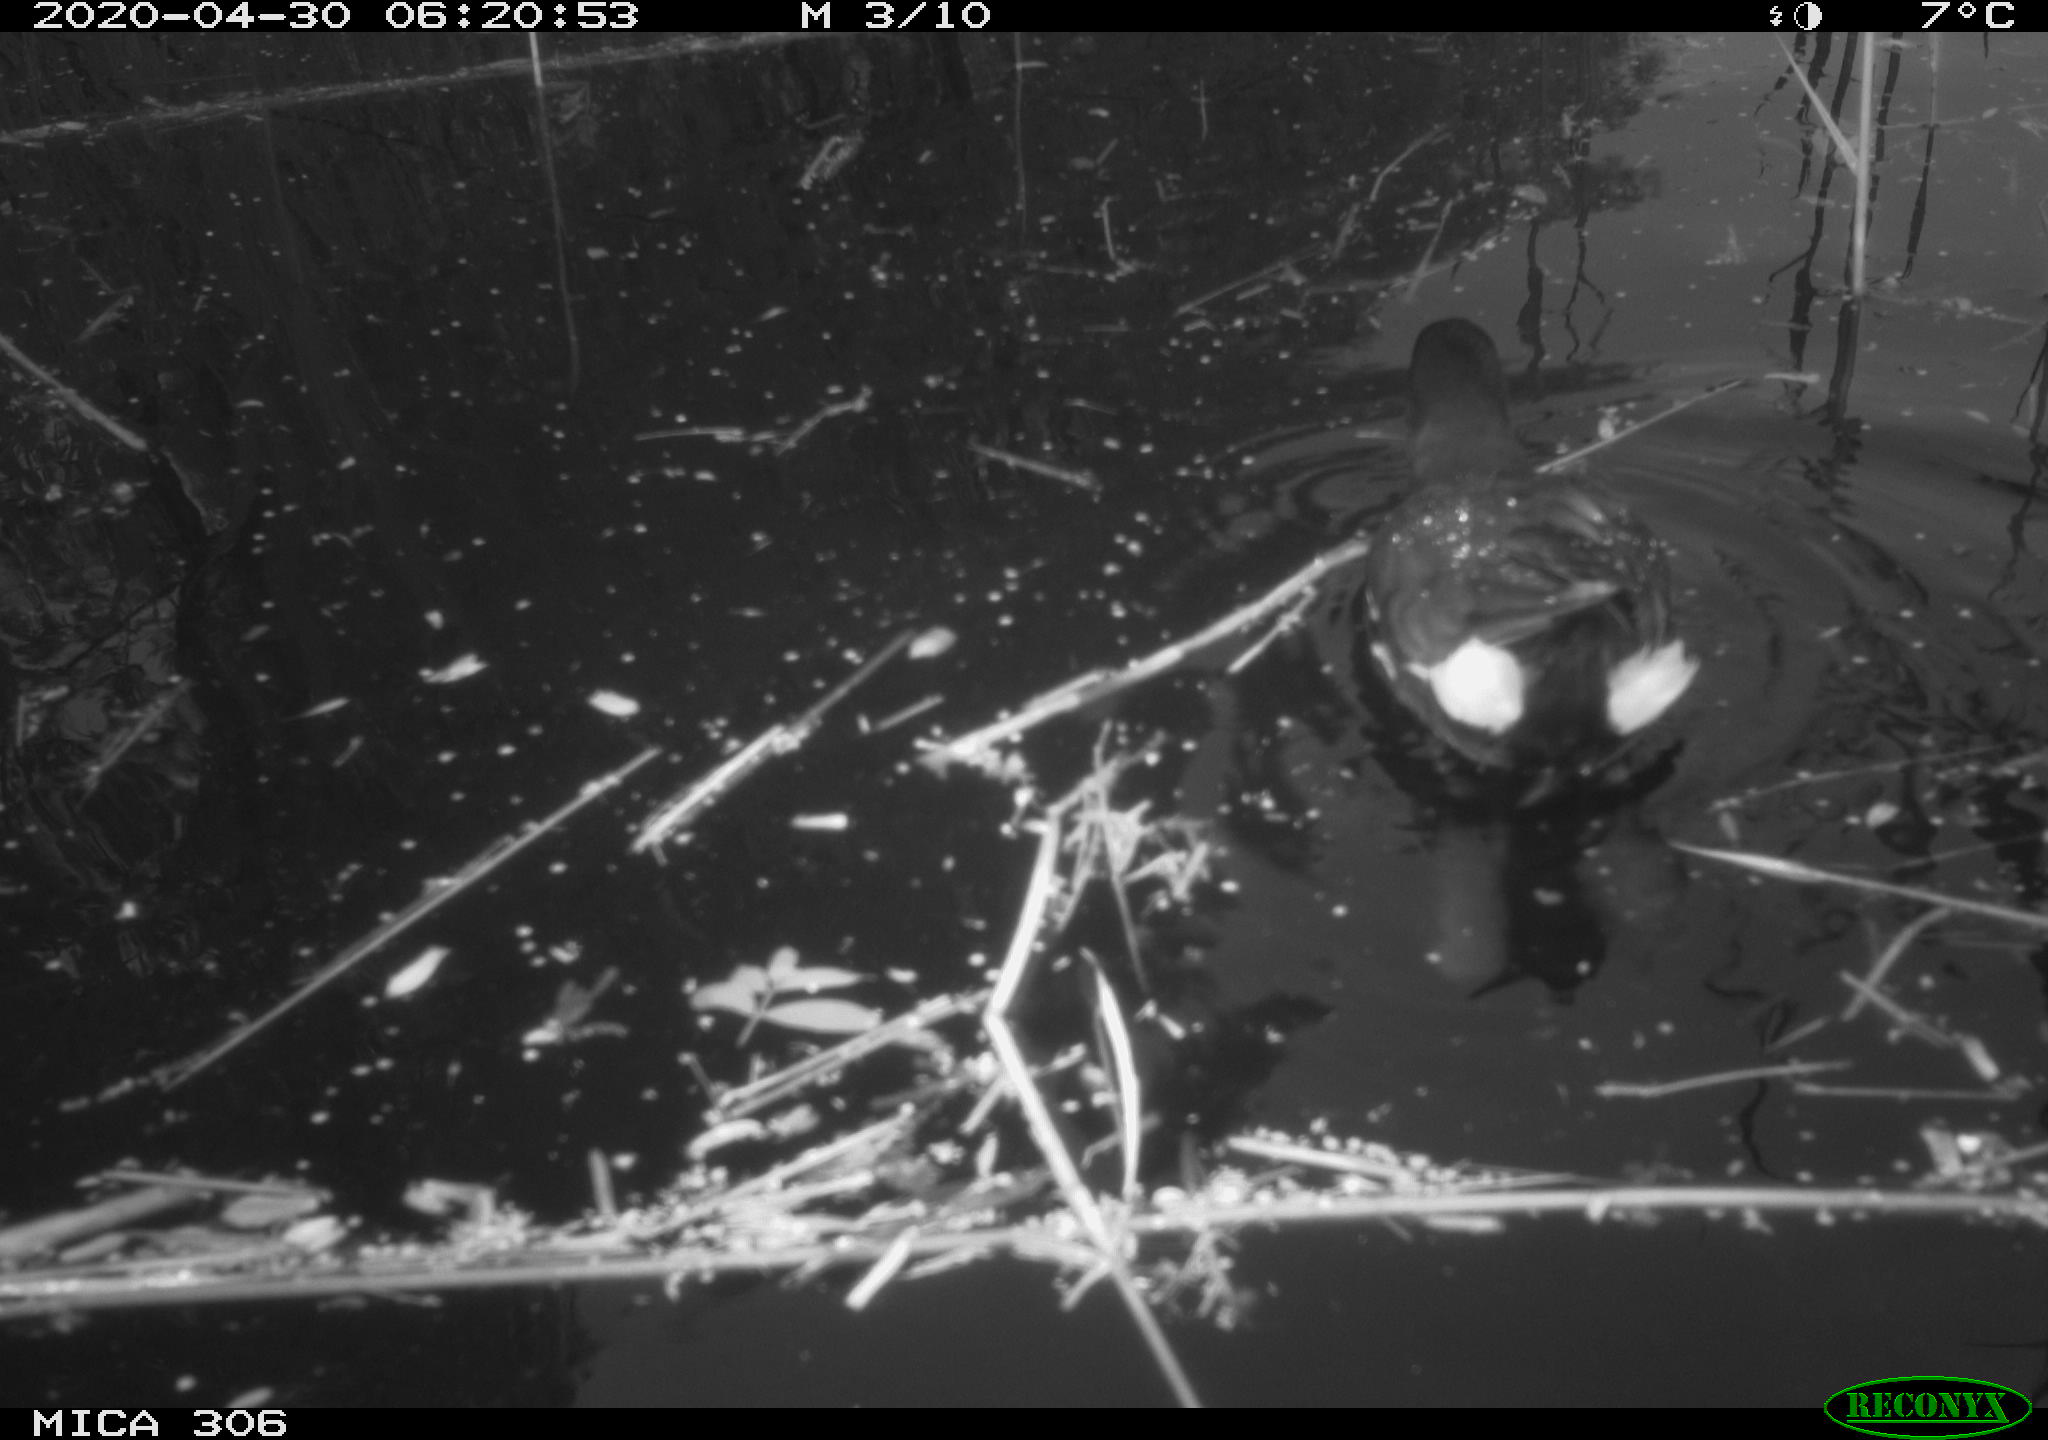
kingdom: Animalia
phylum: Chordata
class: Aves
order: Gruiformes
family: Rallidae
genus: Gallinula
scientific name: Gallinula chloropus
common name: Common moorhen
